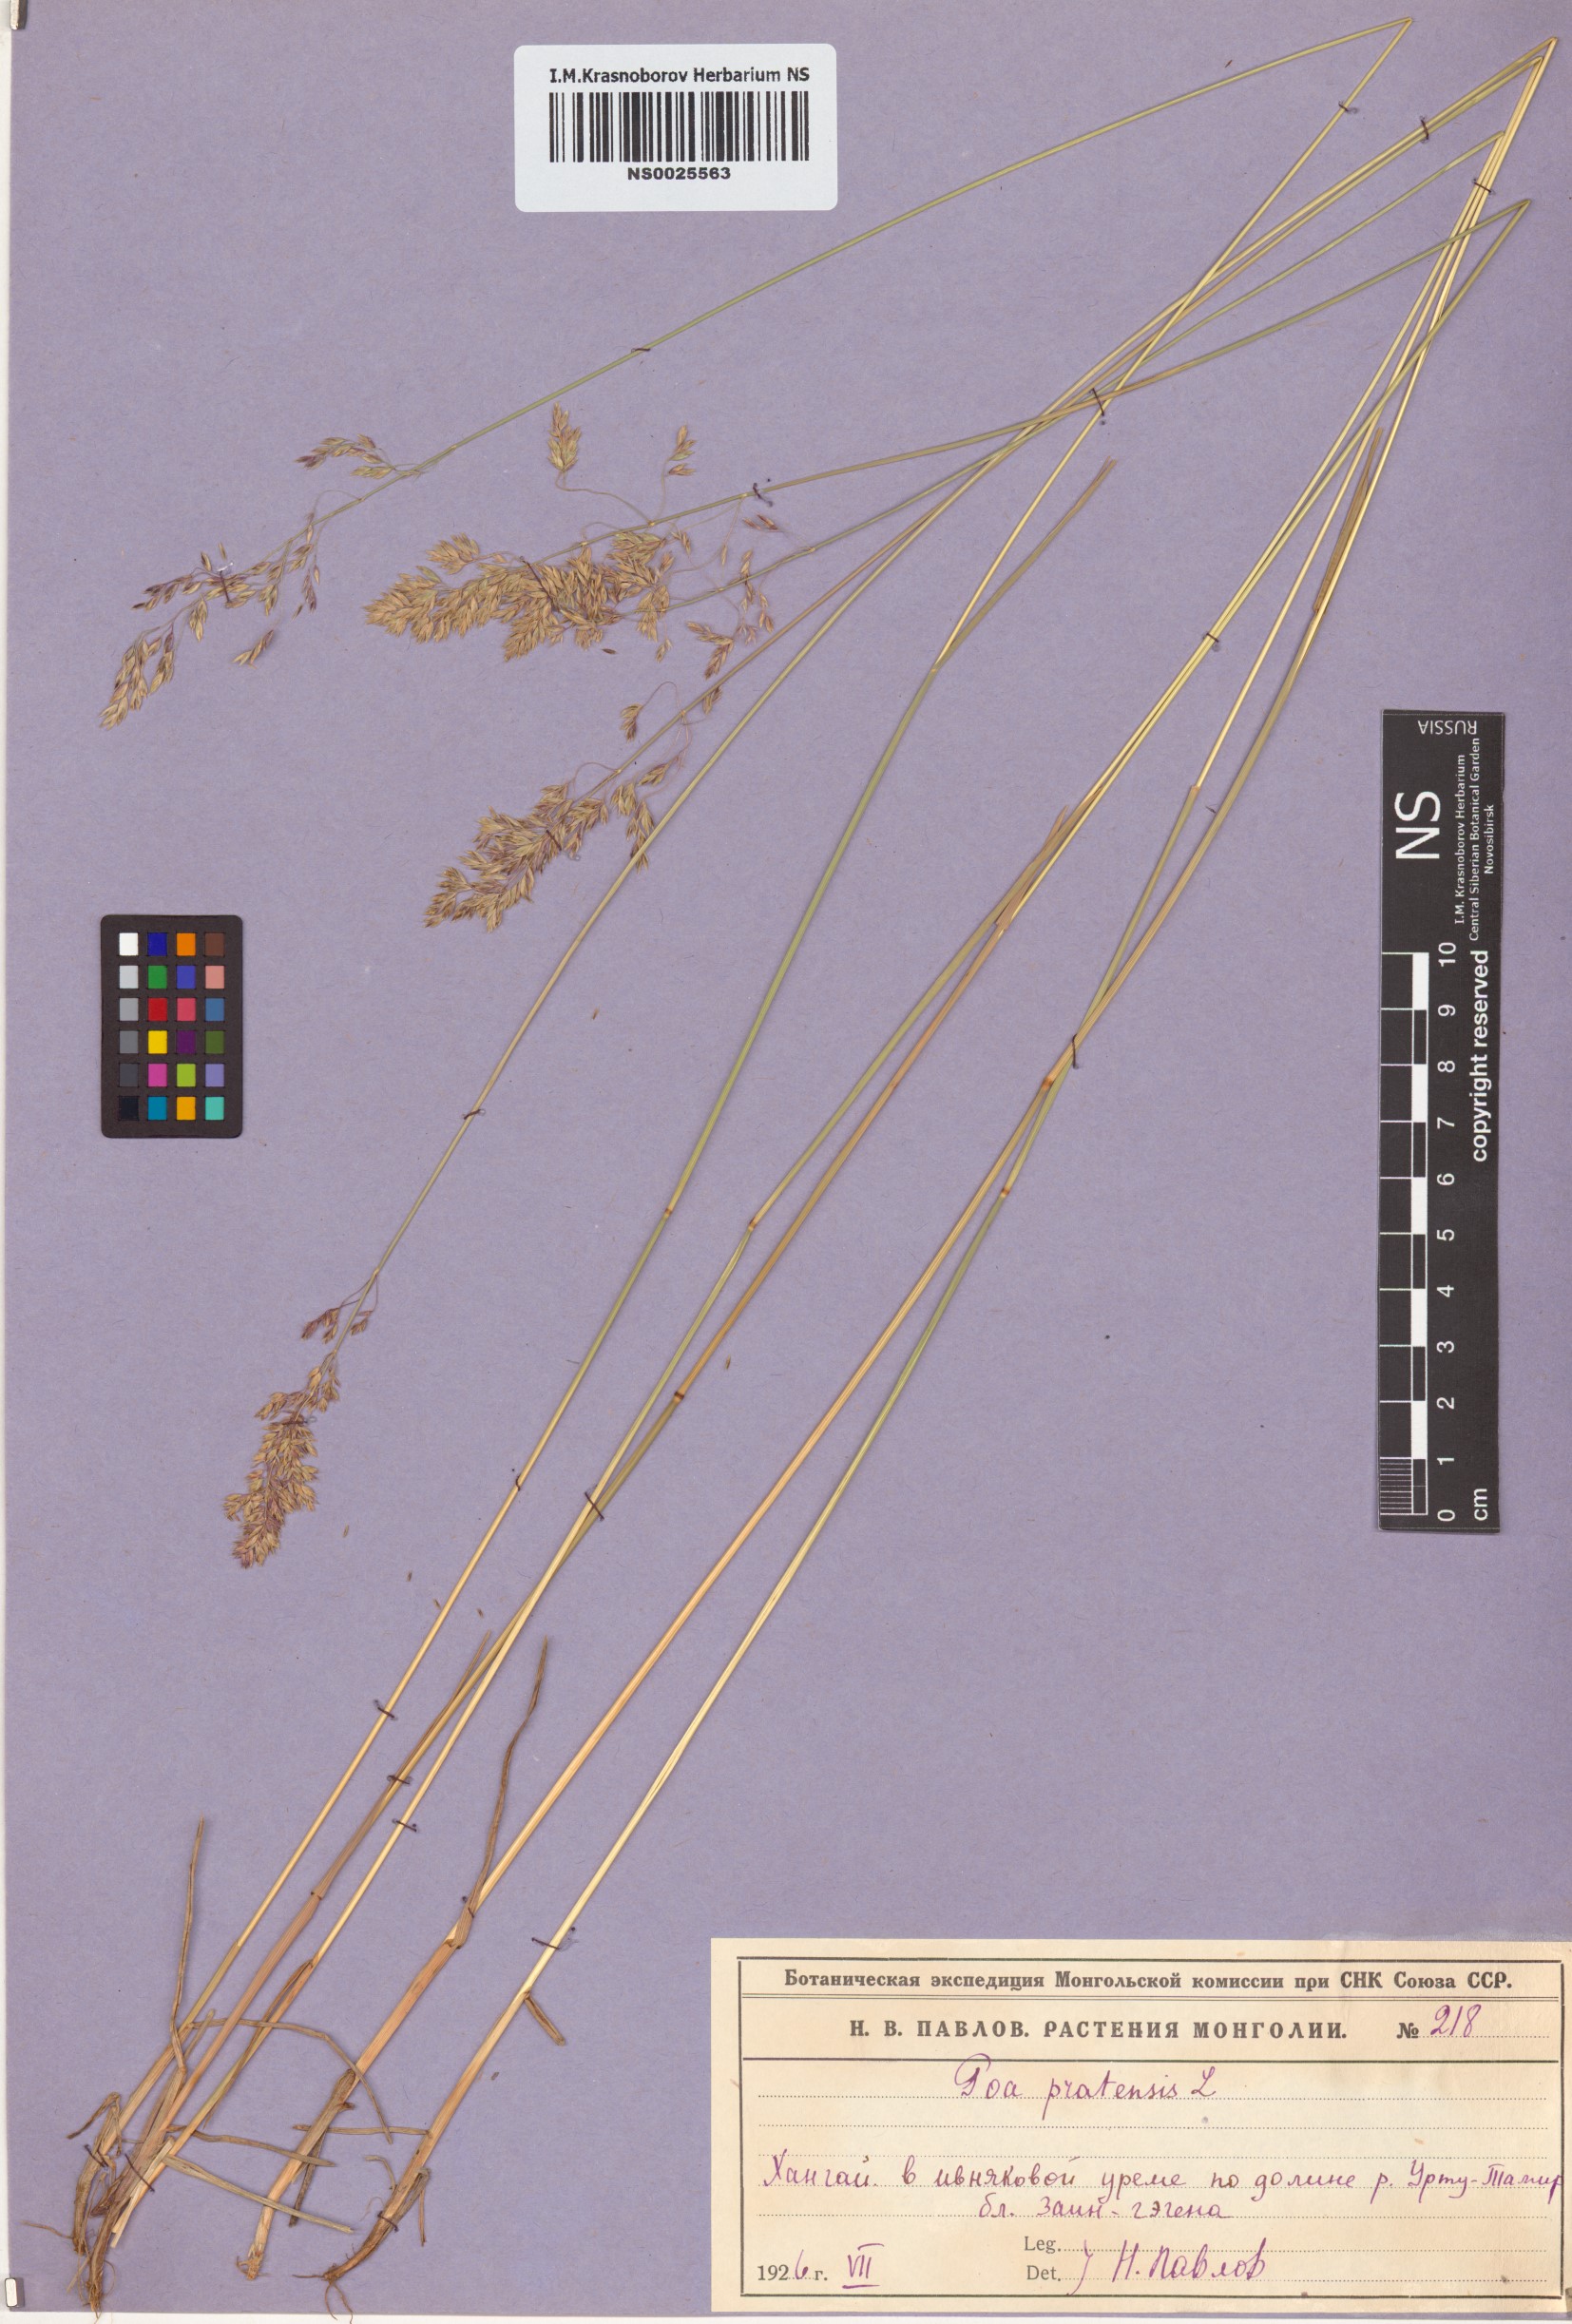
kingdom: Plantae
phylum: Tracheophyta
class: Liliopsida
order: Poales
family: Poaceae
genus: Poa
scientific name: Poa pratensis
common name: Kentucky bluegrass
